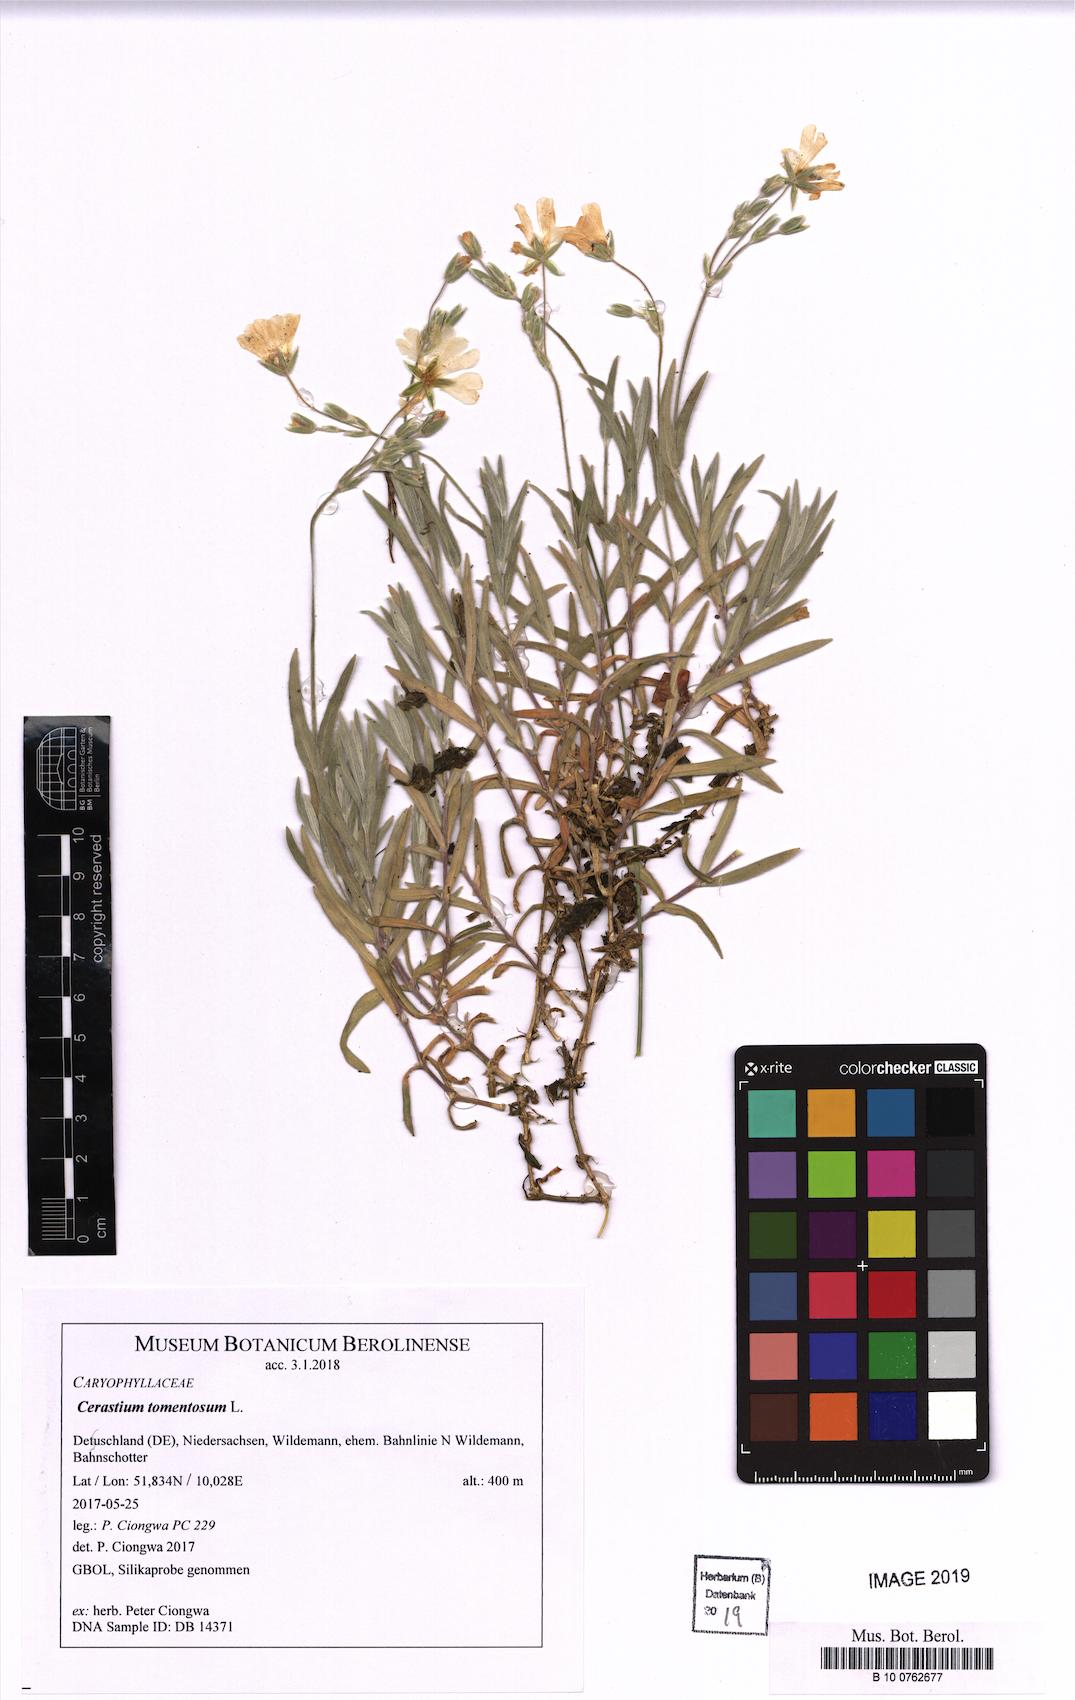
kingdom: Plantae
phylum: Tracheophyta
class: Magnoliopsida
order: Caryophyllales
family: Caryophyllaceae
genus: Cerastium
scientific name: Cerastium tomentosum
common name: Snow-in-summer
